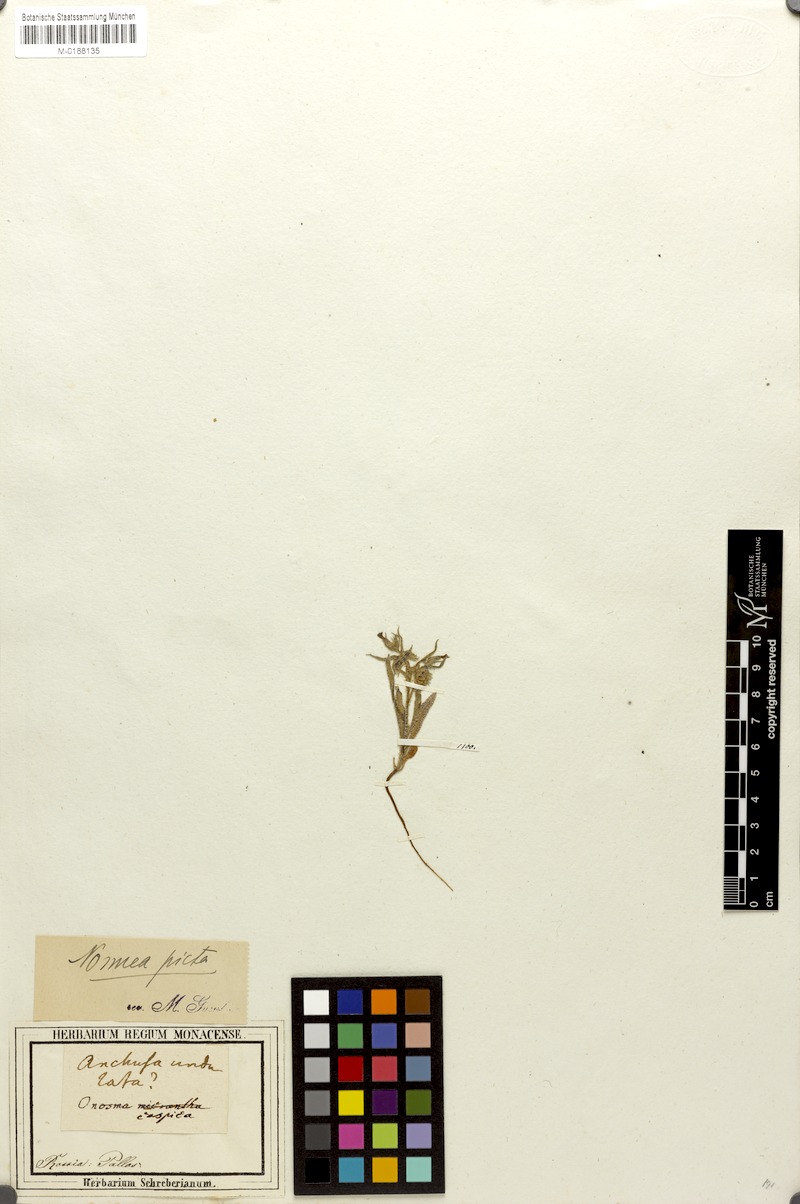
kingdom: Plantae
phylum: Tracheophyta
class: Magnoliopsida
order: Boraginales
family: Boraginaceae
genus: Nonea
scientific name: Nonea caspica
